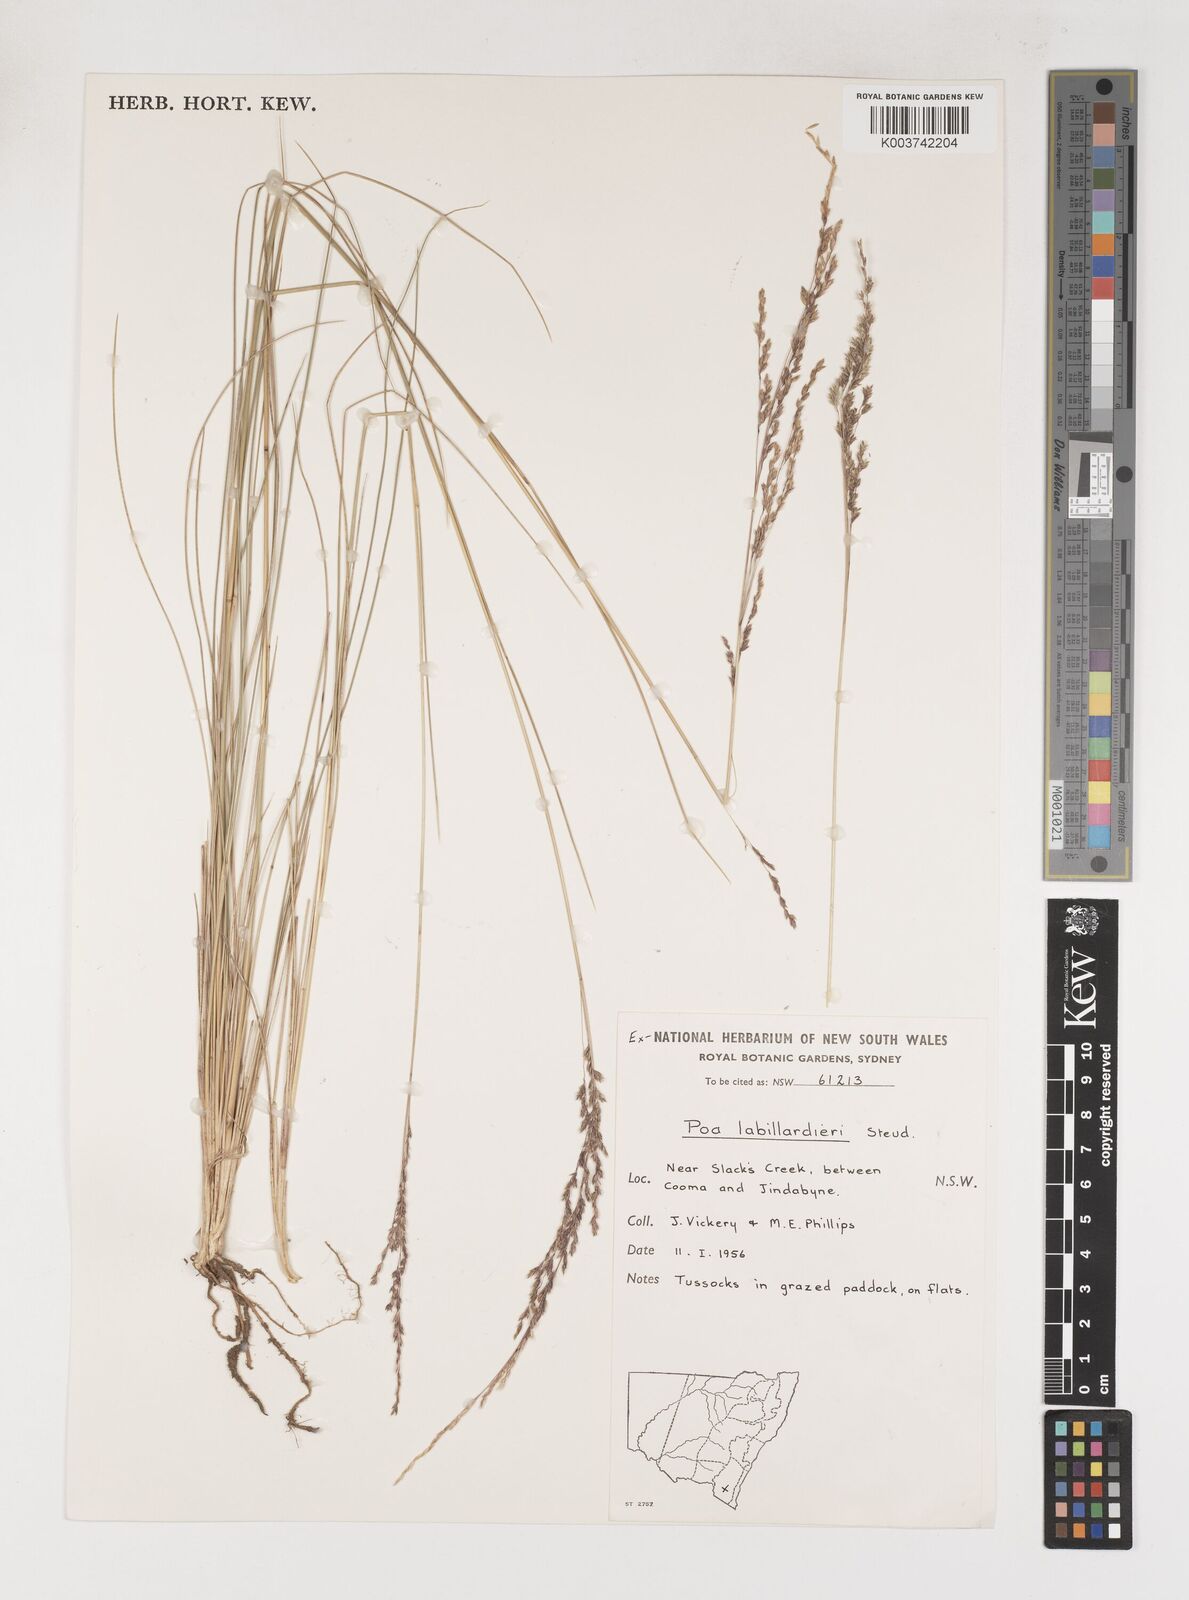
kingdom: Plantae
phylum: Tracheophyta
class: Liliopsida
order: Poales
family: Poaceae
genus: Poa
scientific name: Poa labillardierei
